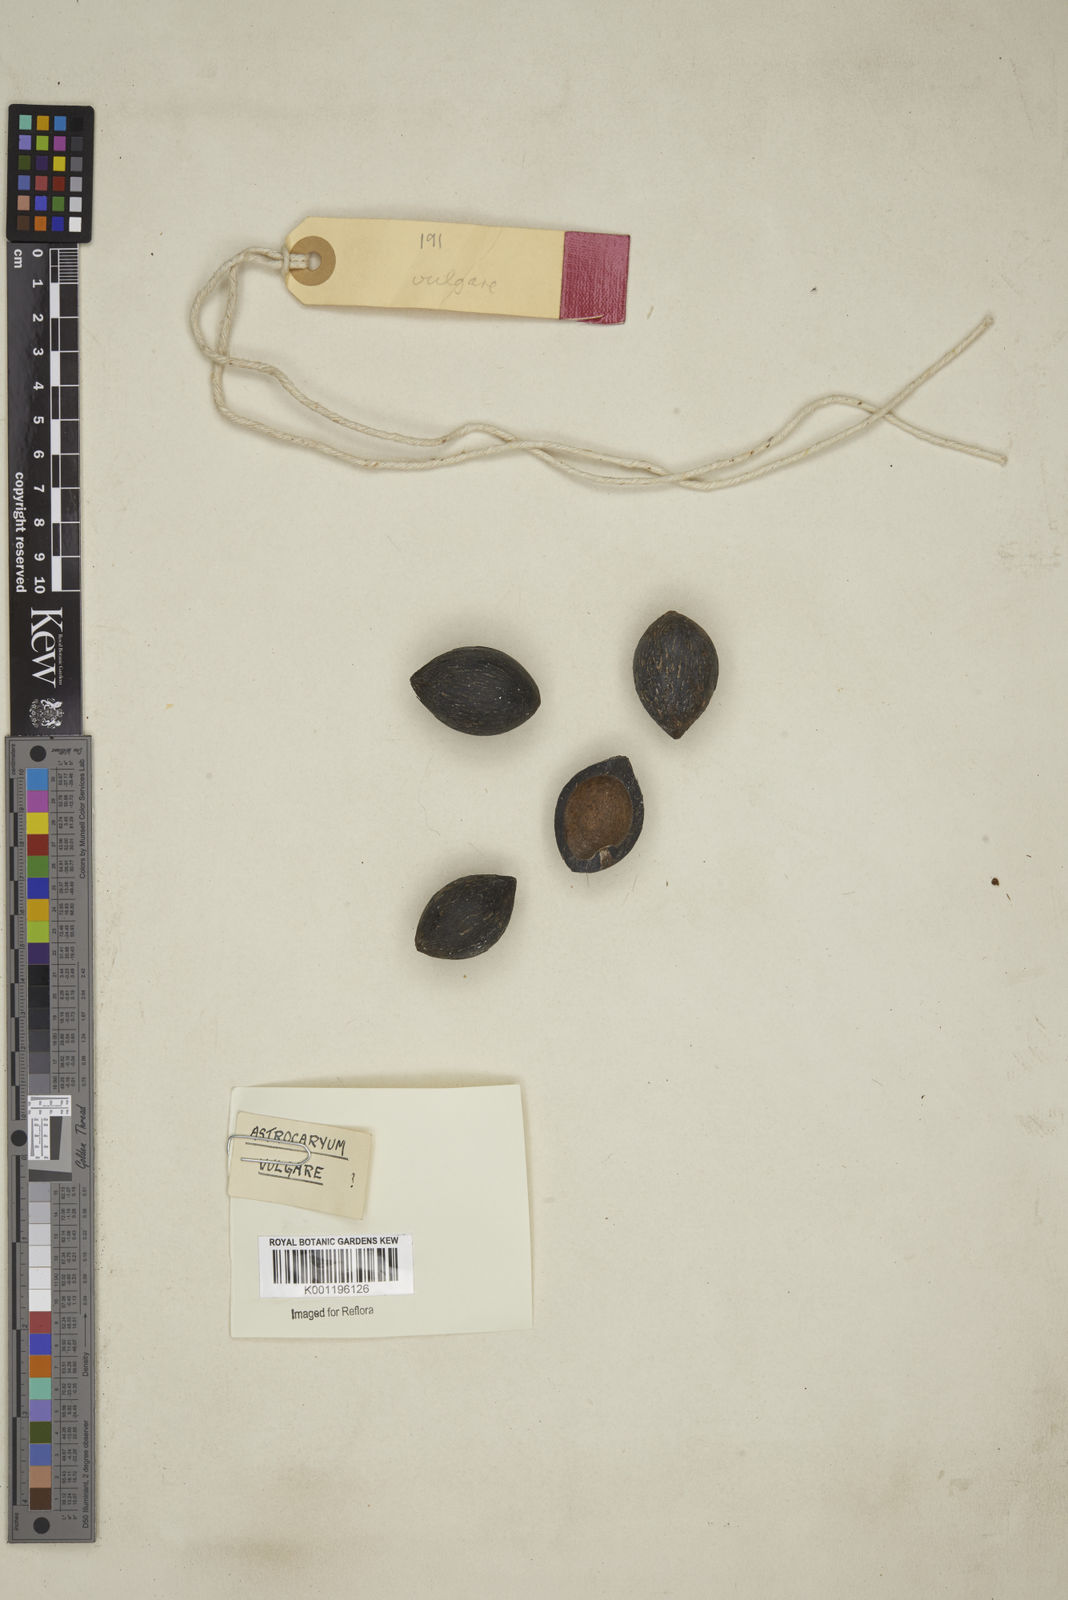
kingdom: Plantae
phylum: Tracheophyta
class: Liliopsida
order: Arecales
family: Arecaceae
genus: Astrocaryum
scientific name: Astrocaryum vulgare
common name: Tucum palm
